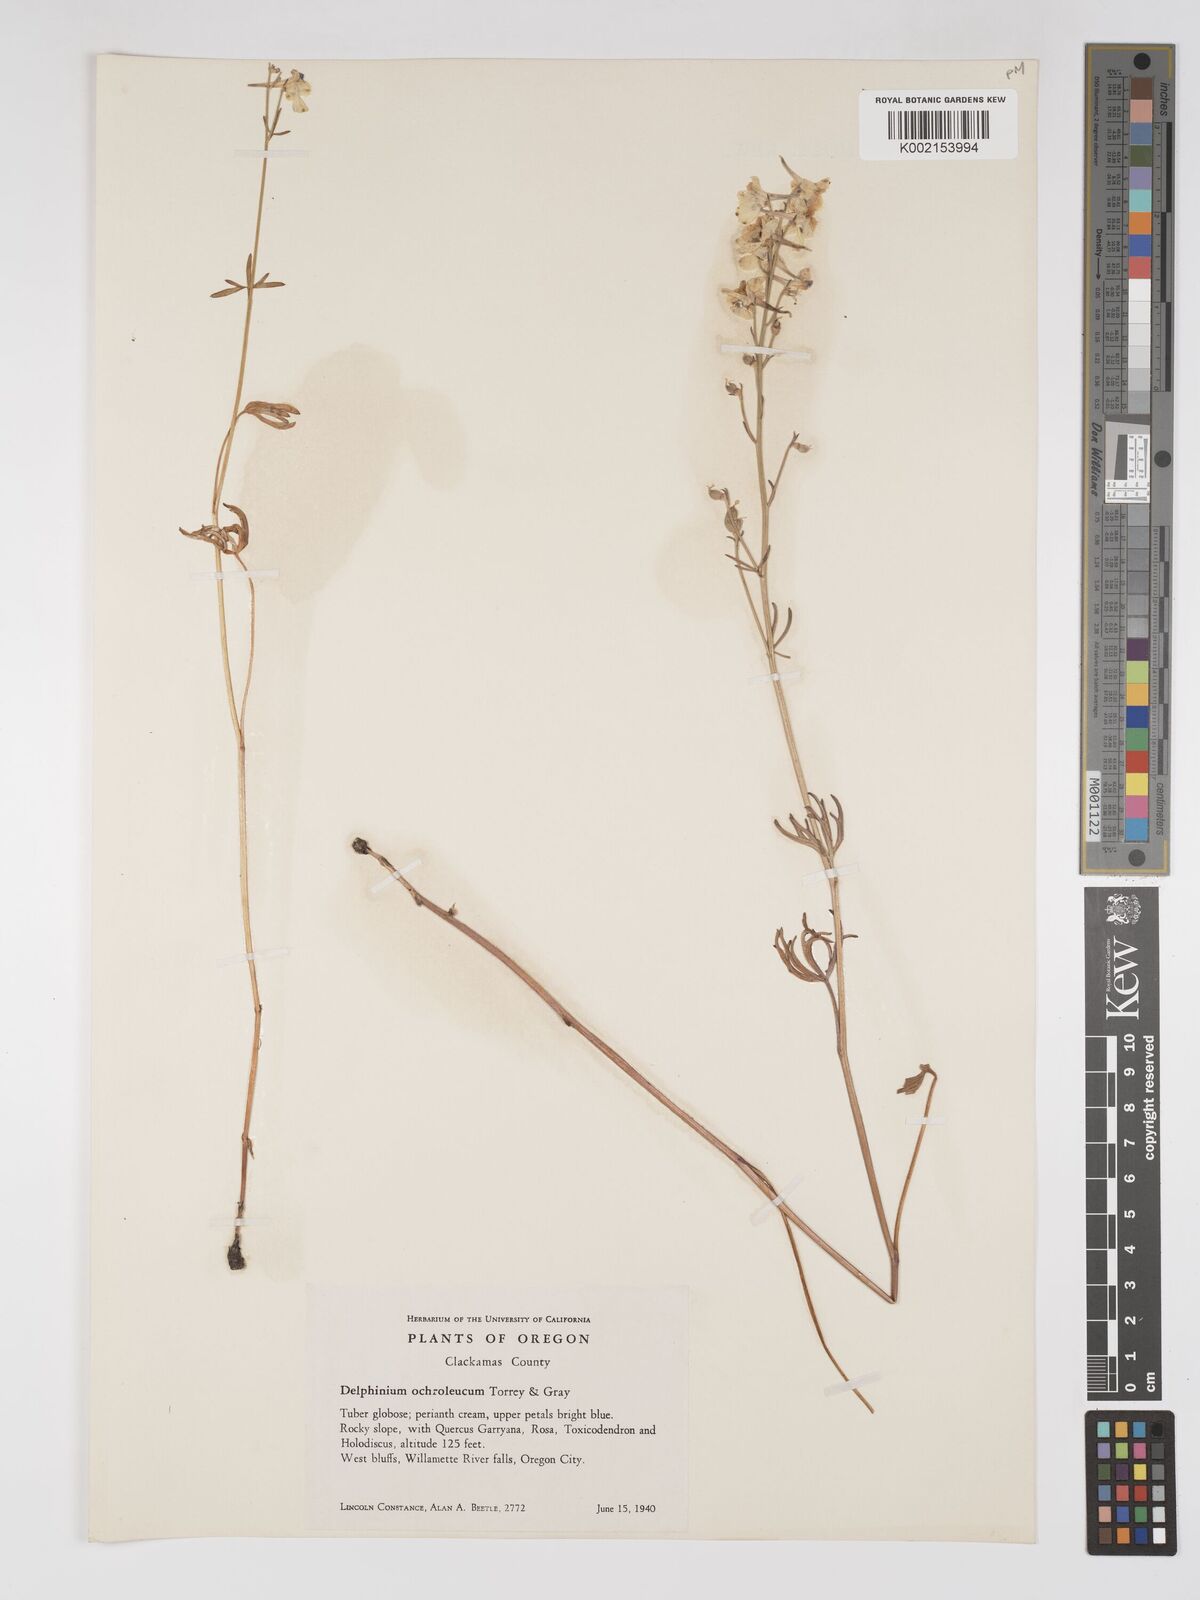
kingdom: Plantae
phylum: Tracheophyta
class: Magnoliopsida
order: Ranunculales
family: Ranunculaceae
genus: Delphinium
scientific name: Delphinium albiflorum
